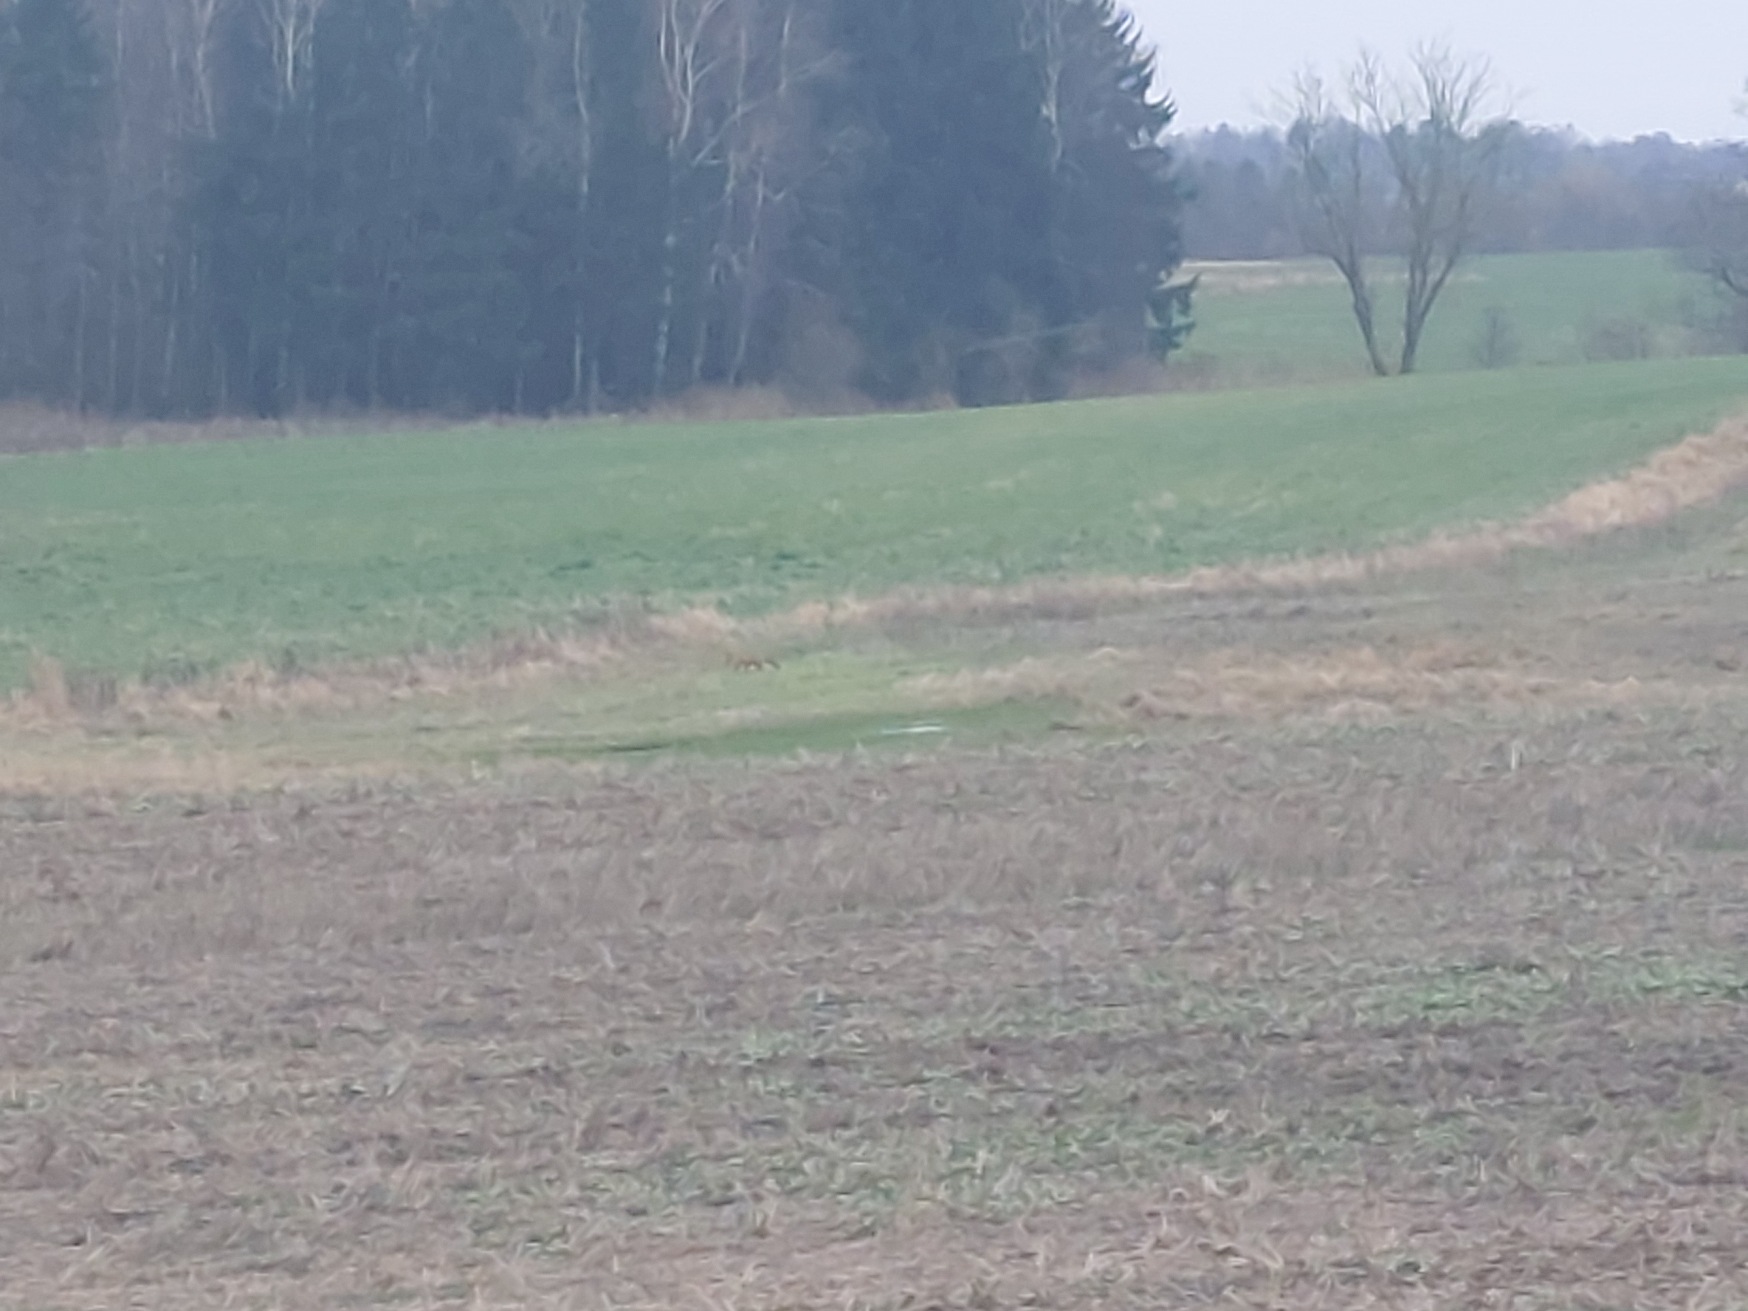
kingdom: Animalia
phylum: Chordata
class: Mammalia
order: Carnivora
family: Canidae
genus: Vulpes
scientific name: Vulpes vulpes
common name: Ræv
